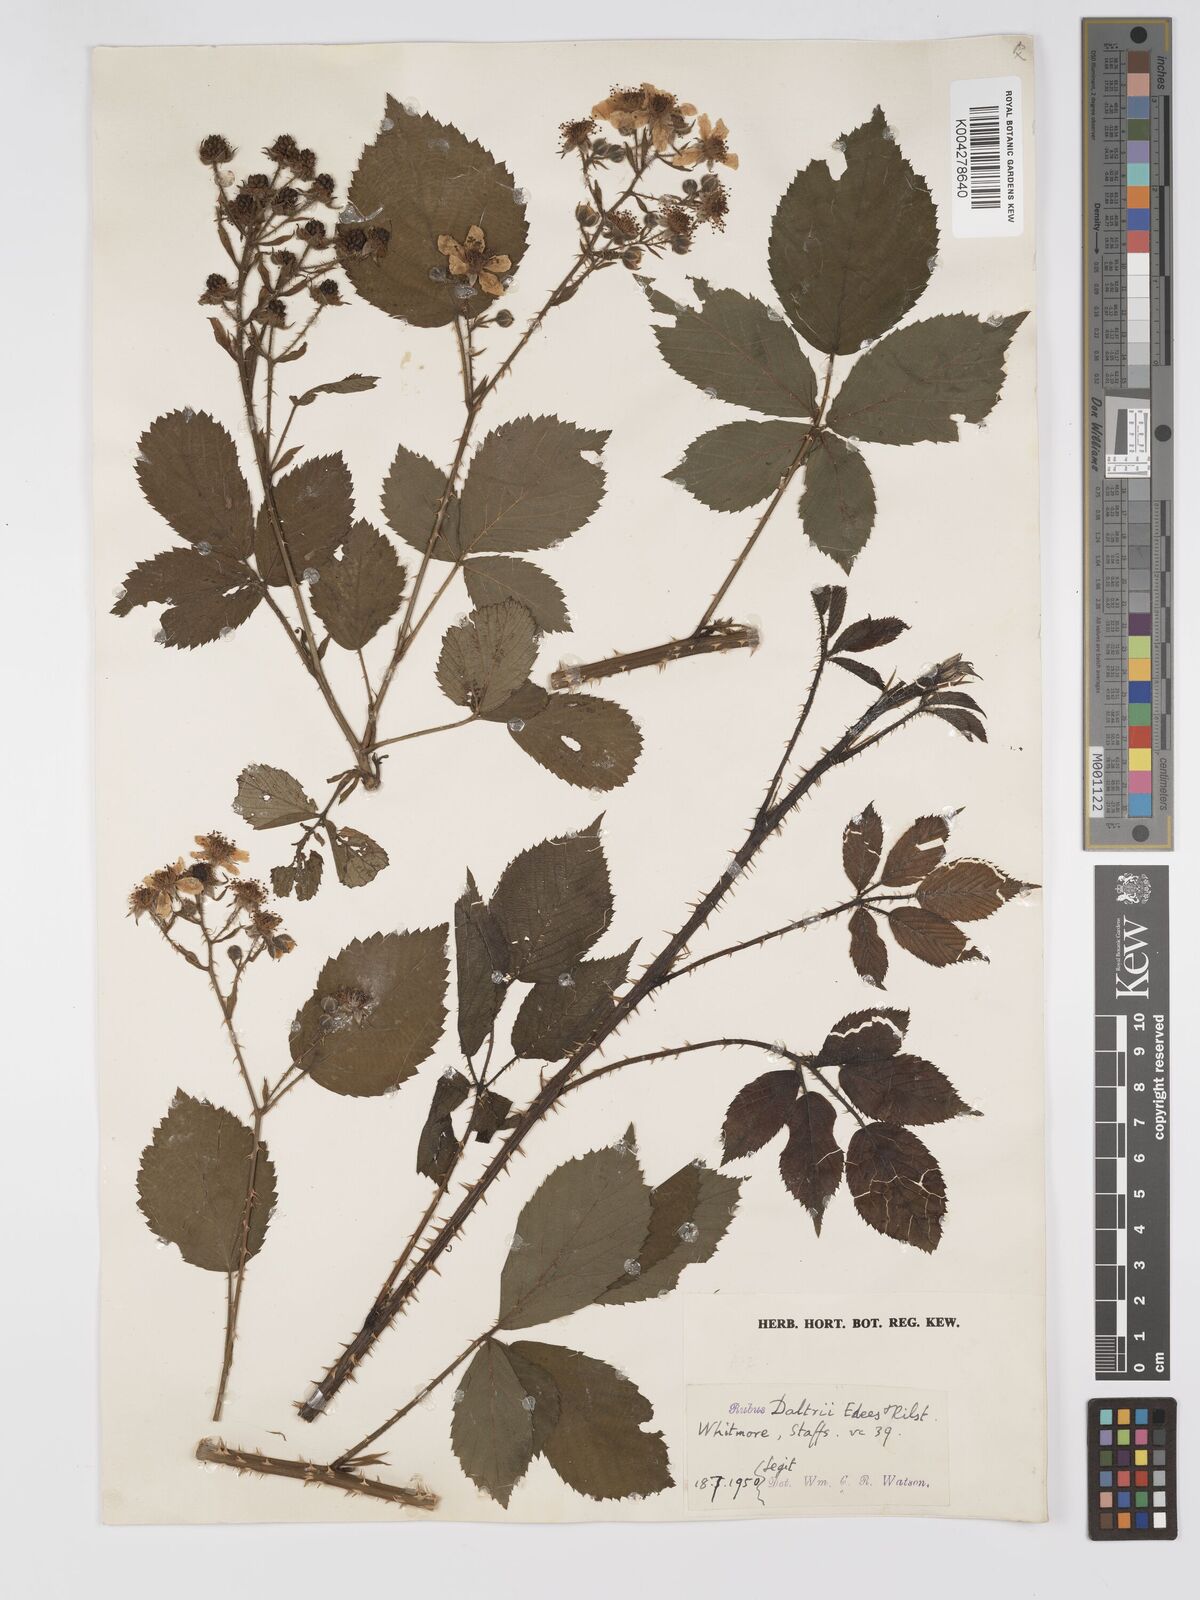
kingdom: Plantae
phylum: Tracheophyta
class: Magnoliopsida
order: Rosales
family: Rosaceae
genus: Rubus
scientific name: Rubus daltrii
